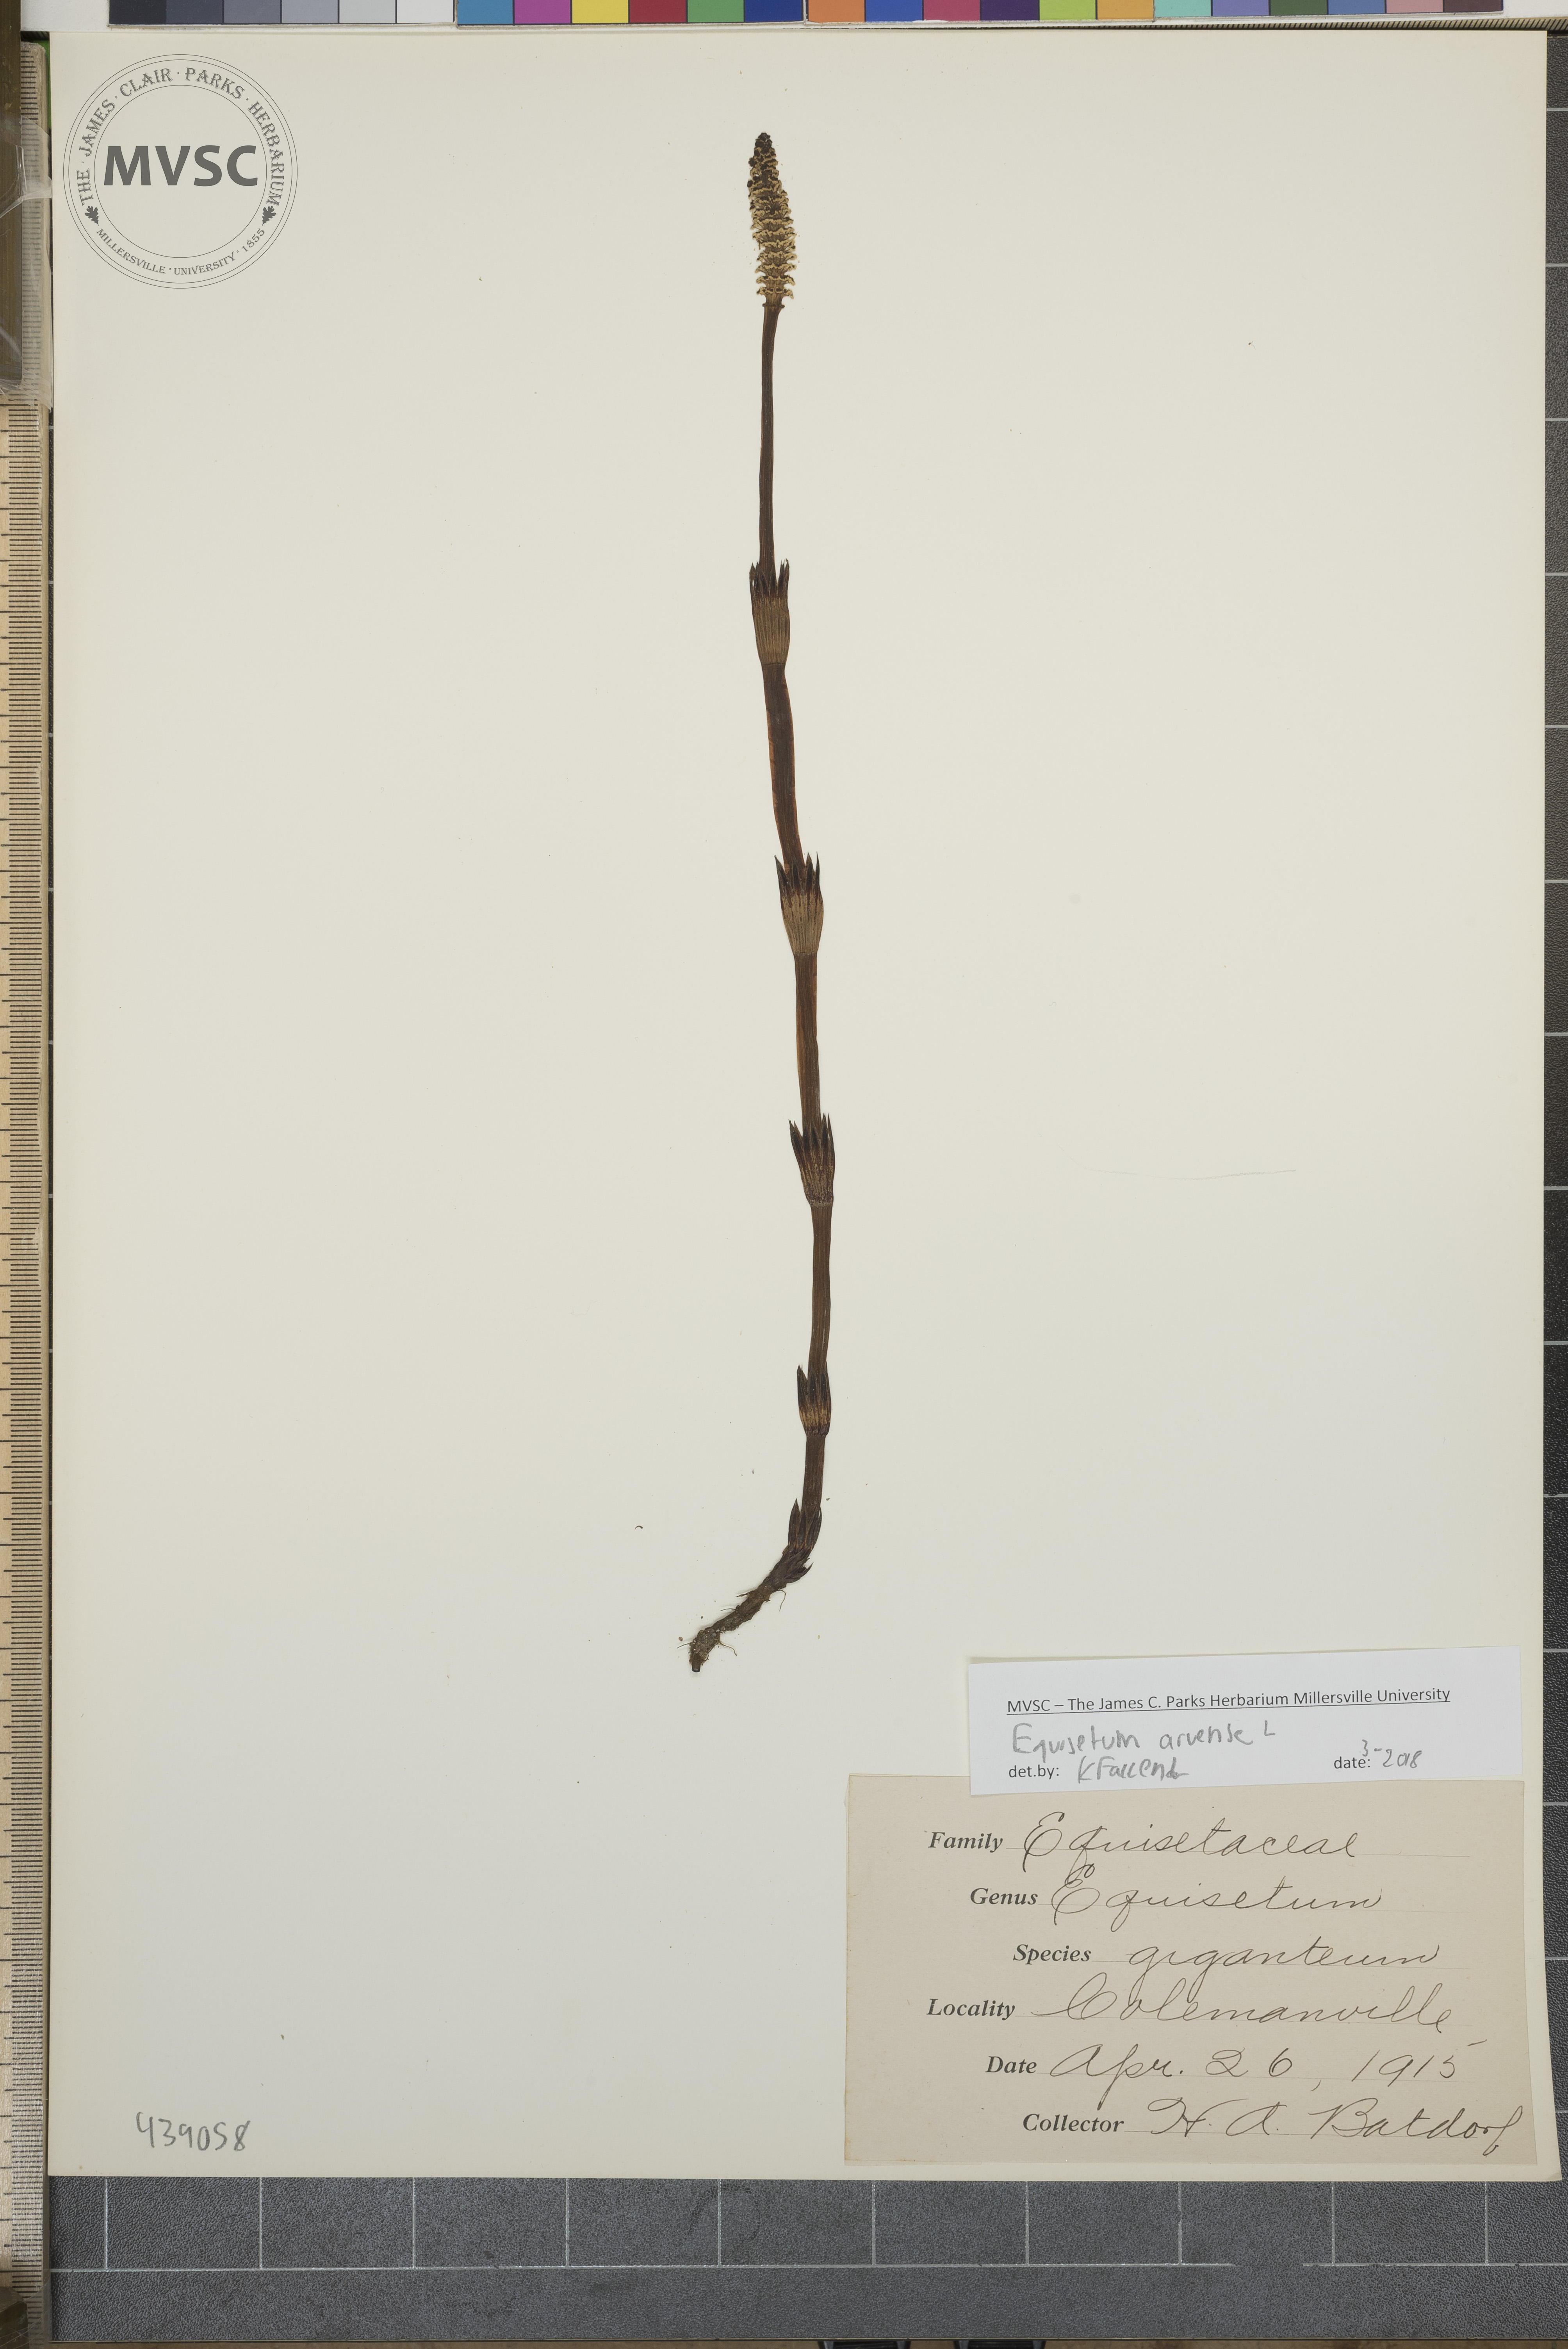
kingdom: Plantae
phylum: Tracheophyta
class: Polypodiopsida
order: Equisetales
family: Equisetaceae
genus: Equisetum
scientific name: Equisetum arvense
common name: Field horsetail
